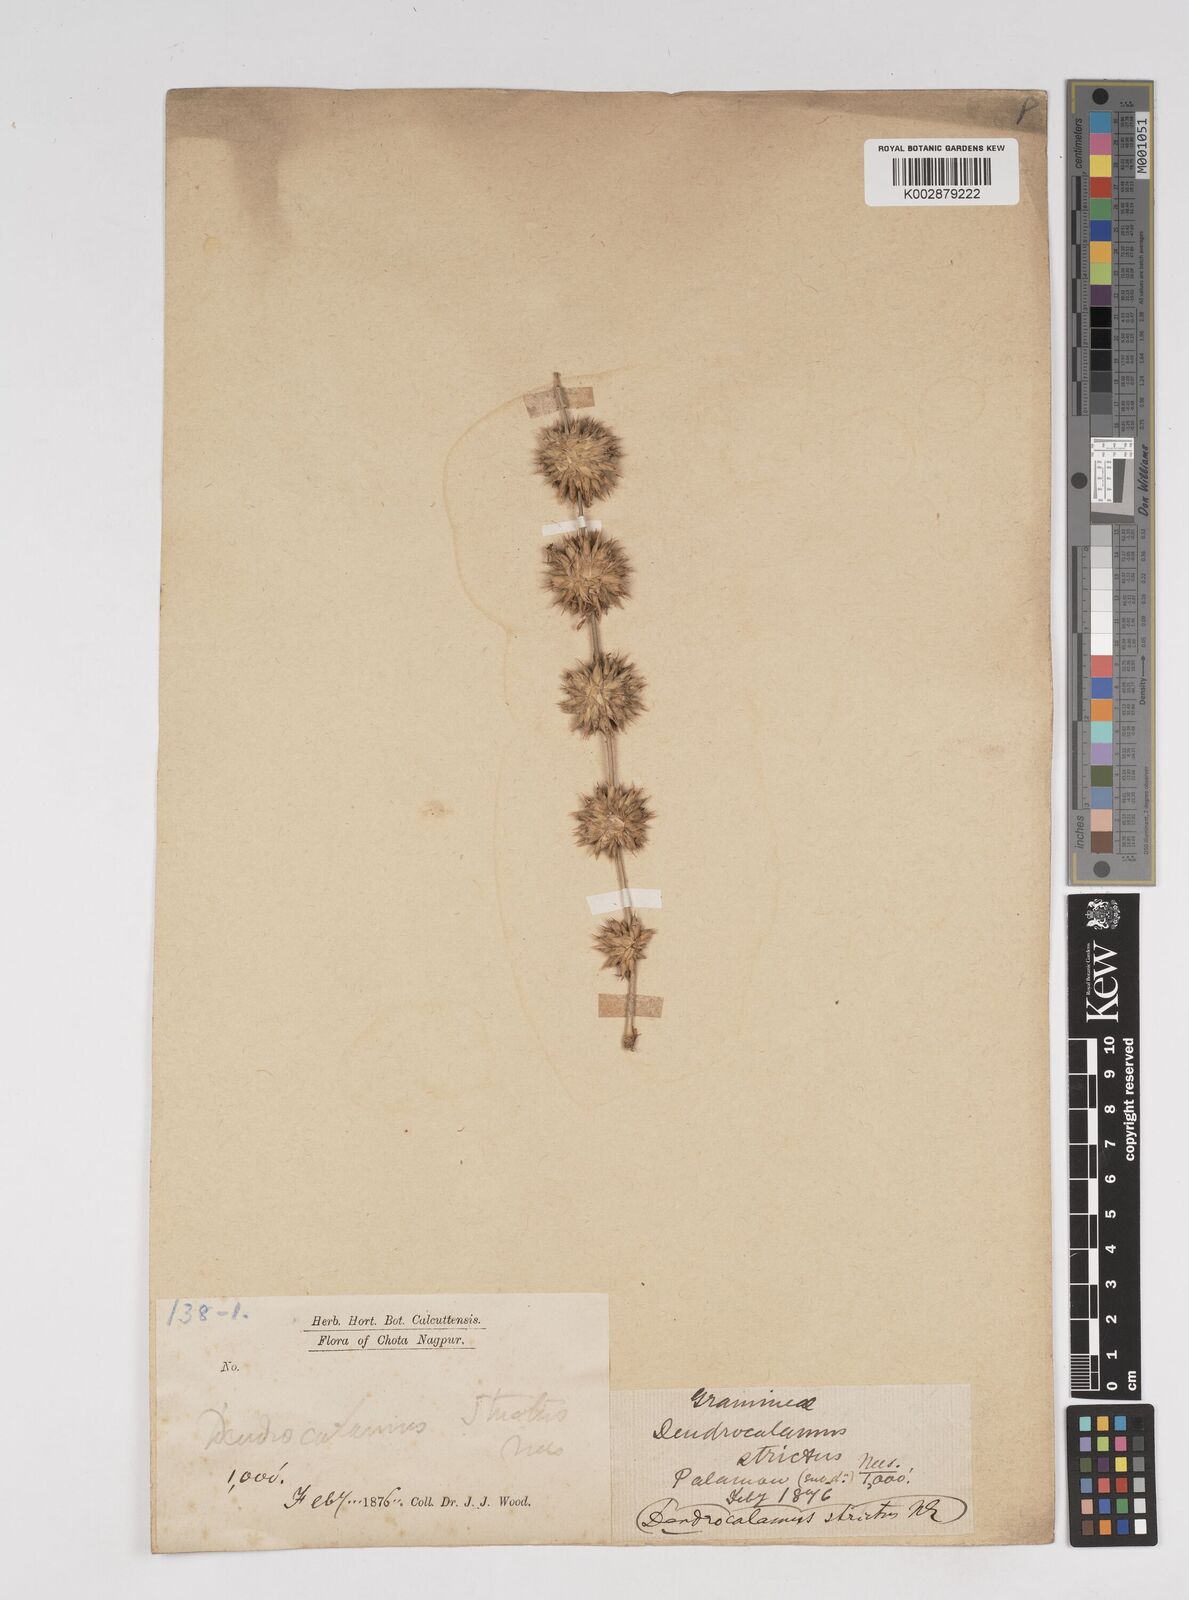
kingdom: Plantae
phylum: Tracheophyta
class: Liliopsida
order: Poales
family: Poaceae
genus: Dendrocalamus
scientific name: Dendrocalamus strictus
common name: Male bamboo
